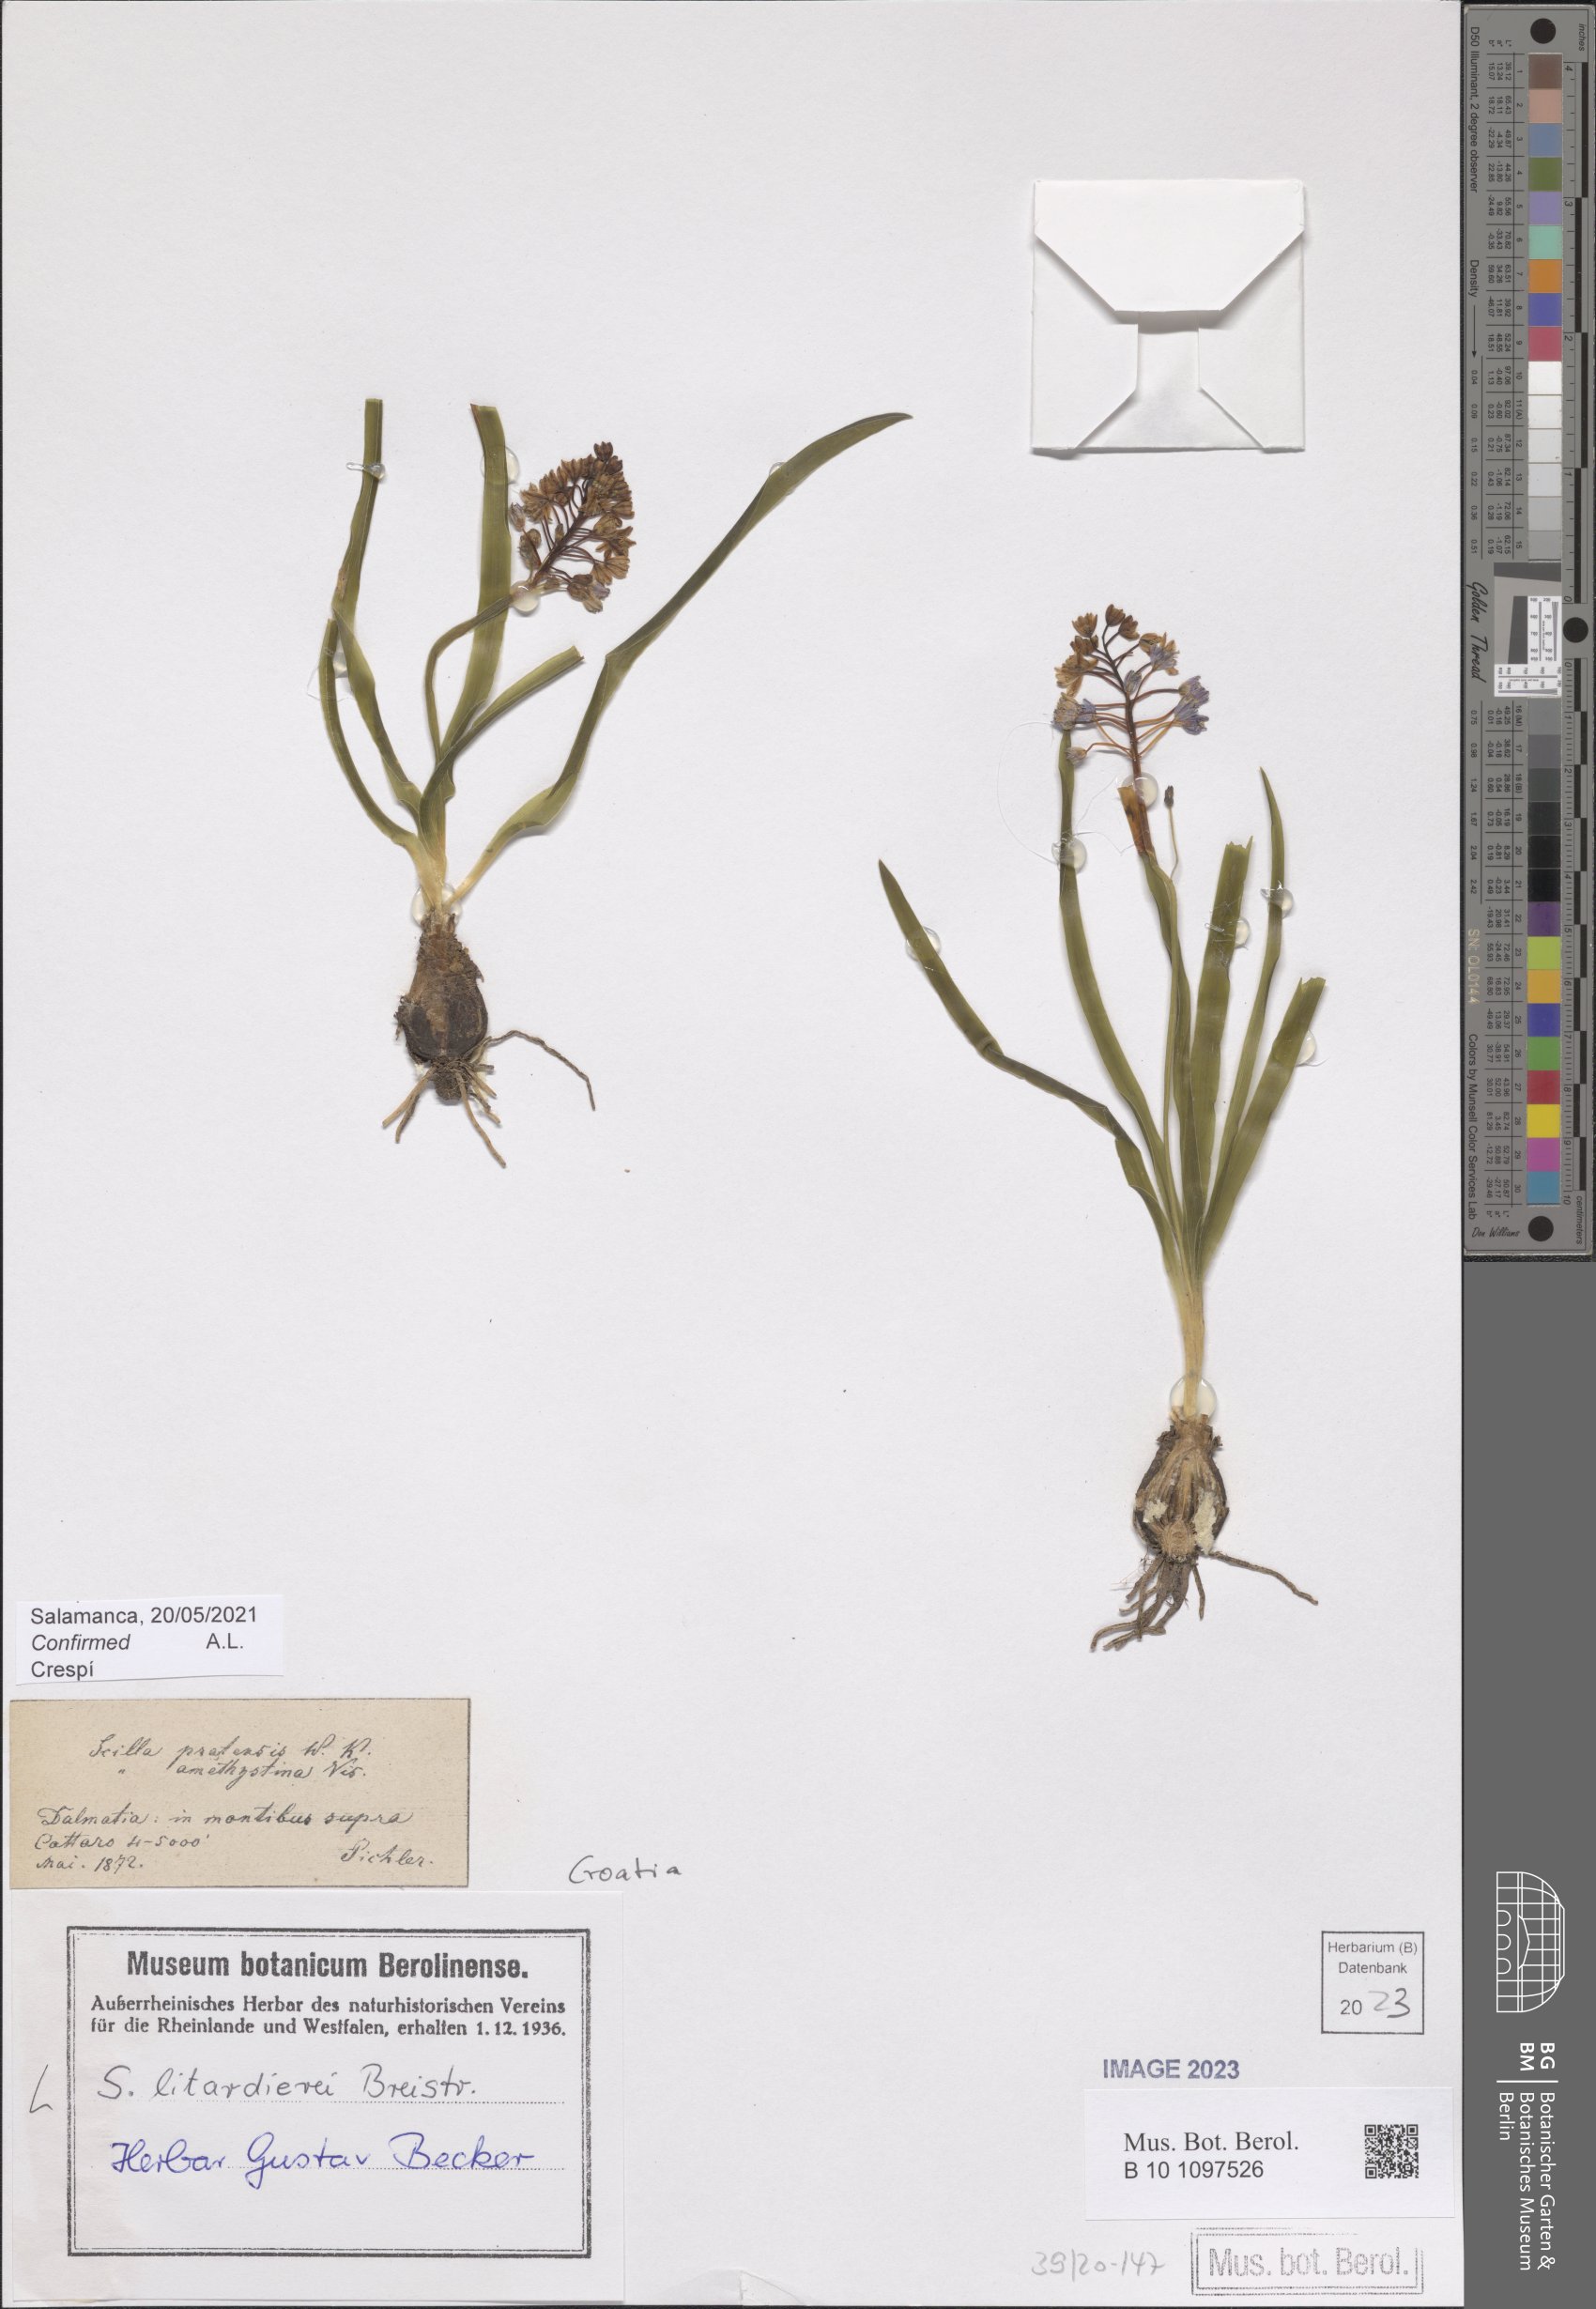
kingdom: Plantae
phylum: Tracheophyta
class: Liliopsida
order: Asparagales
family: Asparagaceae
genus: Scilla
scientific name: Scilla litardierei
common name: Amethyst meadow squill
